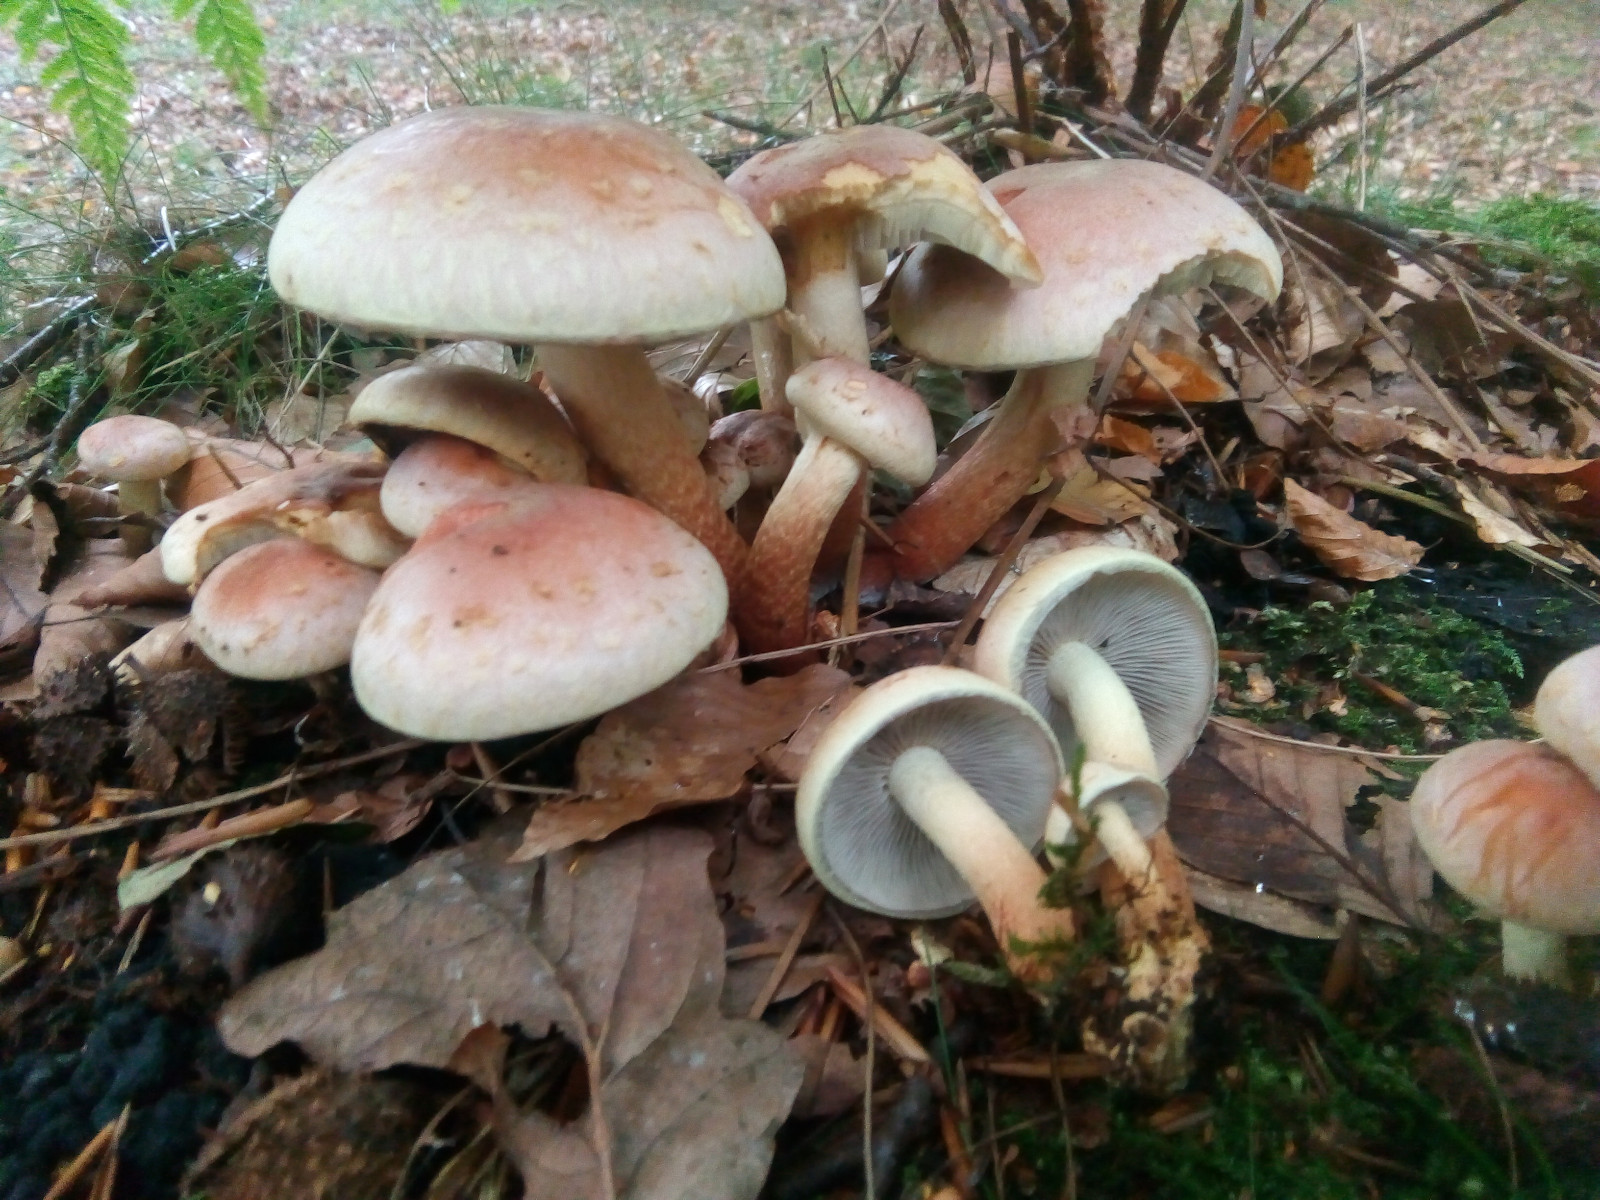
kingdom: Fungi
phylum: Basidiomycota
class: Agaricomycetes
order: Agaricales
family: Strophariaceae
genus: Hypholoma
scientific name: Hypholoma lateritium
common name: teglrød svovlhat
